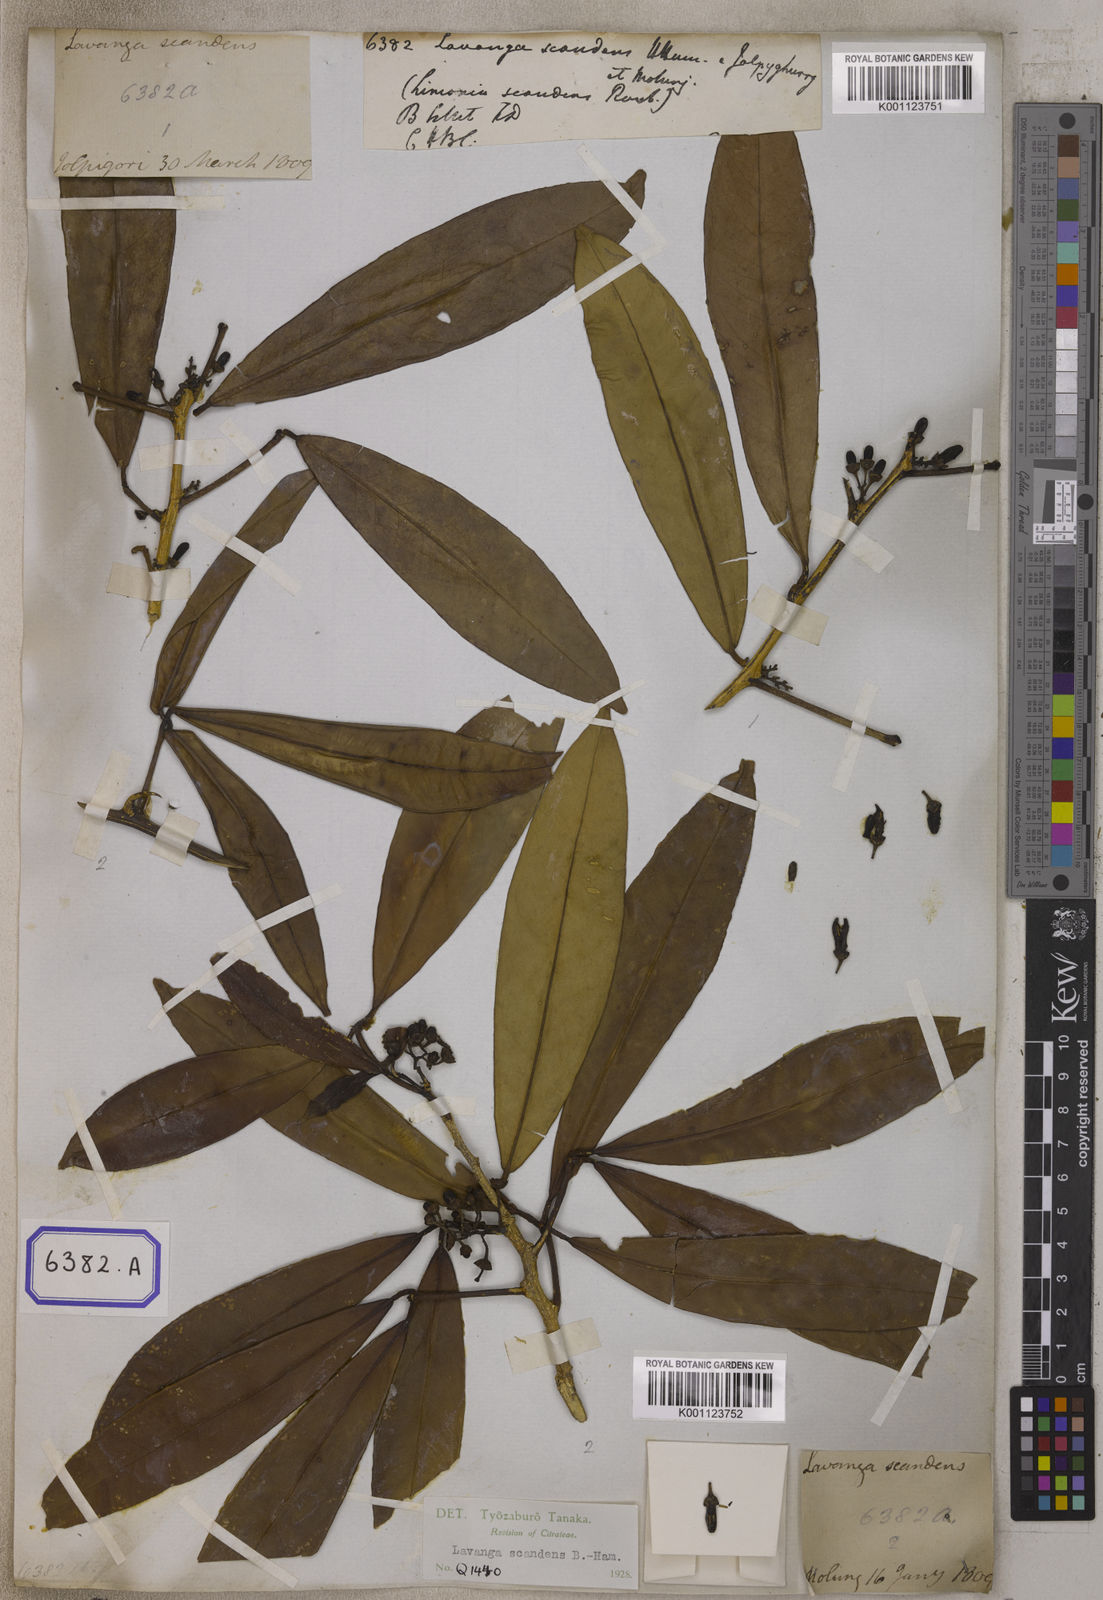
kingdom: Plantae
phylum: Tracheophyta
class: Magnoliopsida
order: Sapindales
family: Rutaceae
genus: Luvunga
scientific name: Luvunga scandens
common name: Indian luvunga
